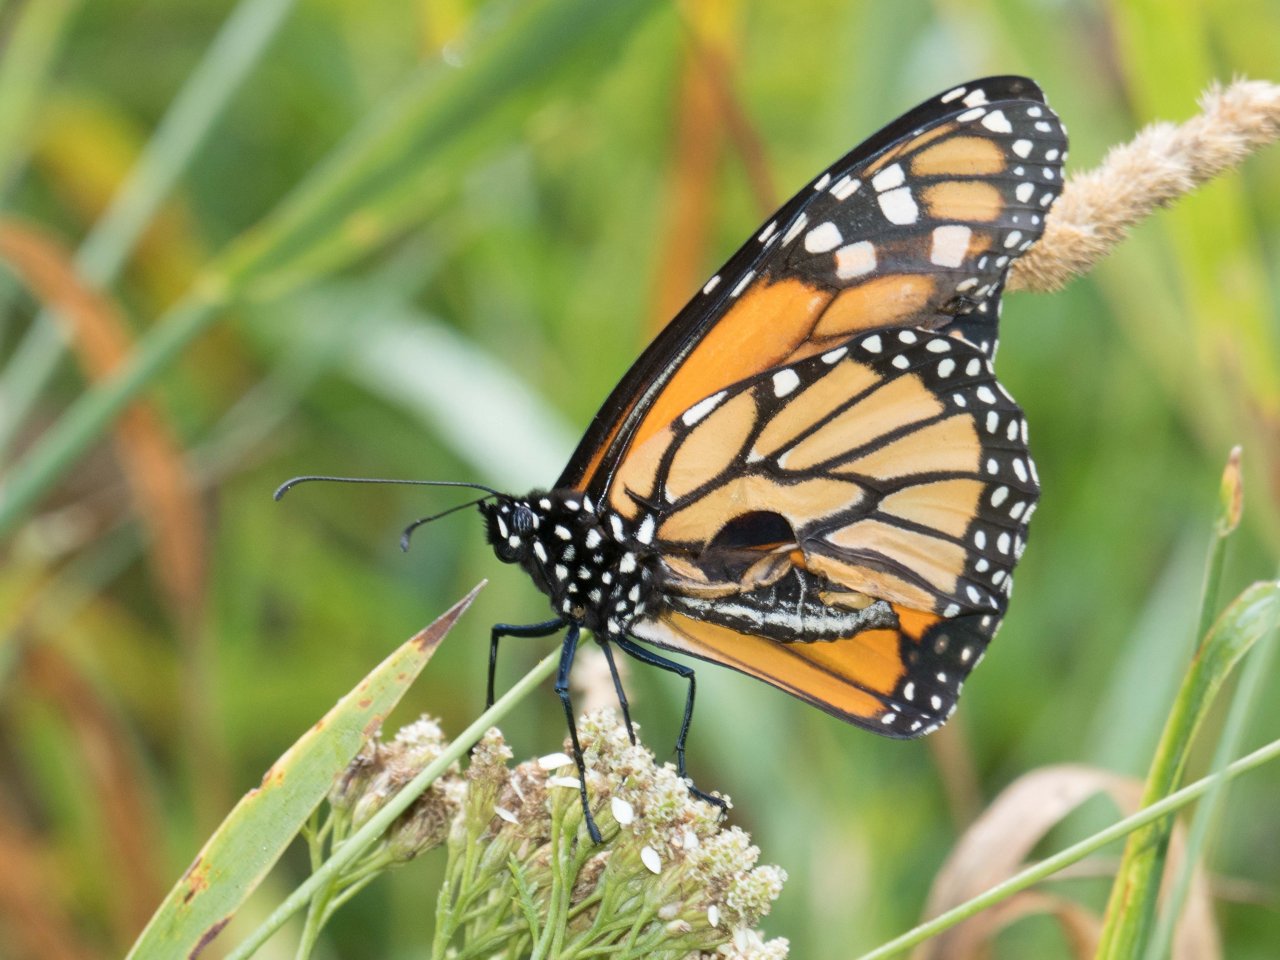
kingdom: Animalia
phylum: Arthropoda
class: Insecta
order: Lepidoptera
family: Nymphalidae
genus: Danaus
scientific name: Danaus plexippus
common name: Monarch
